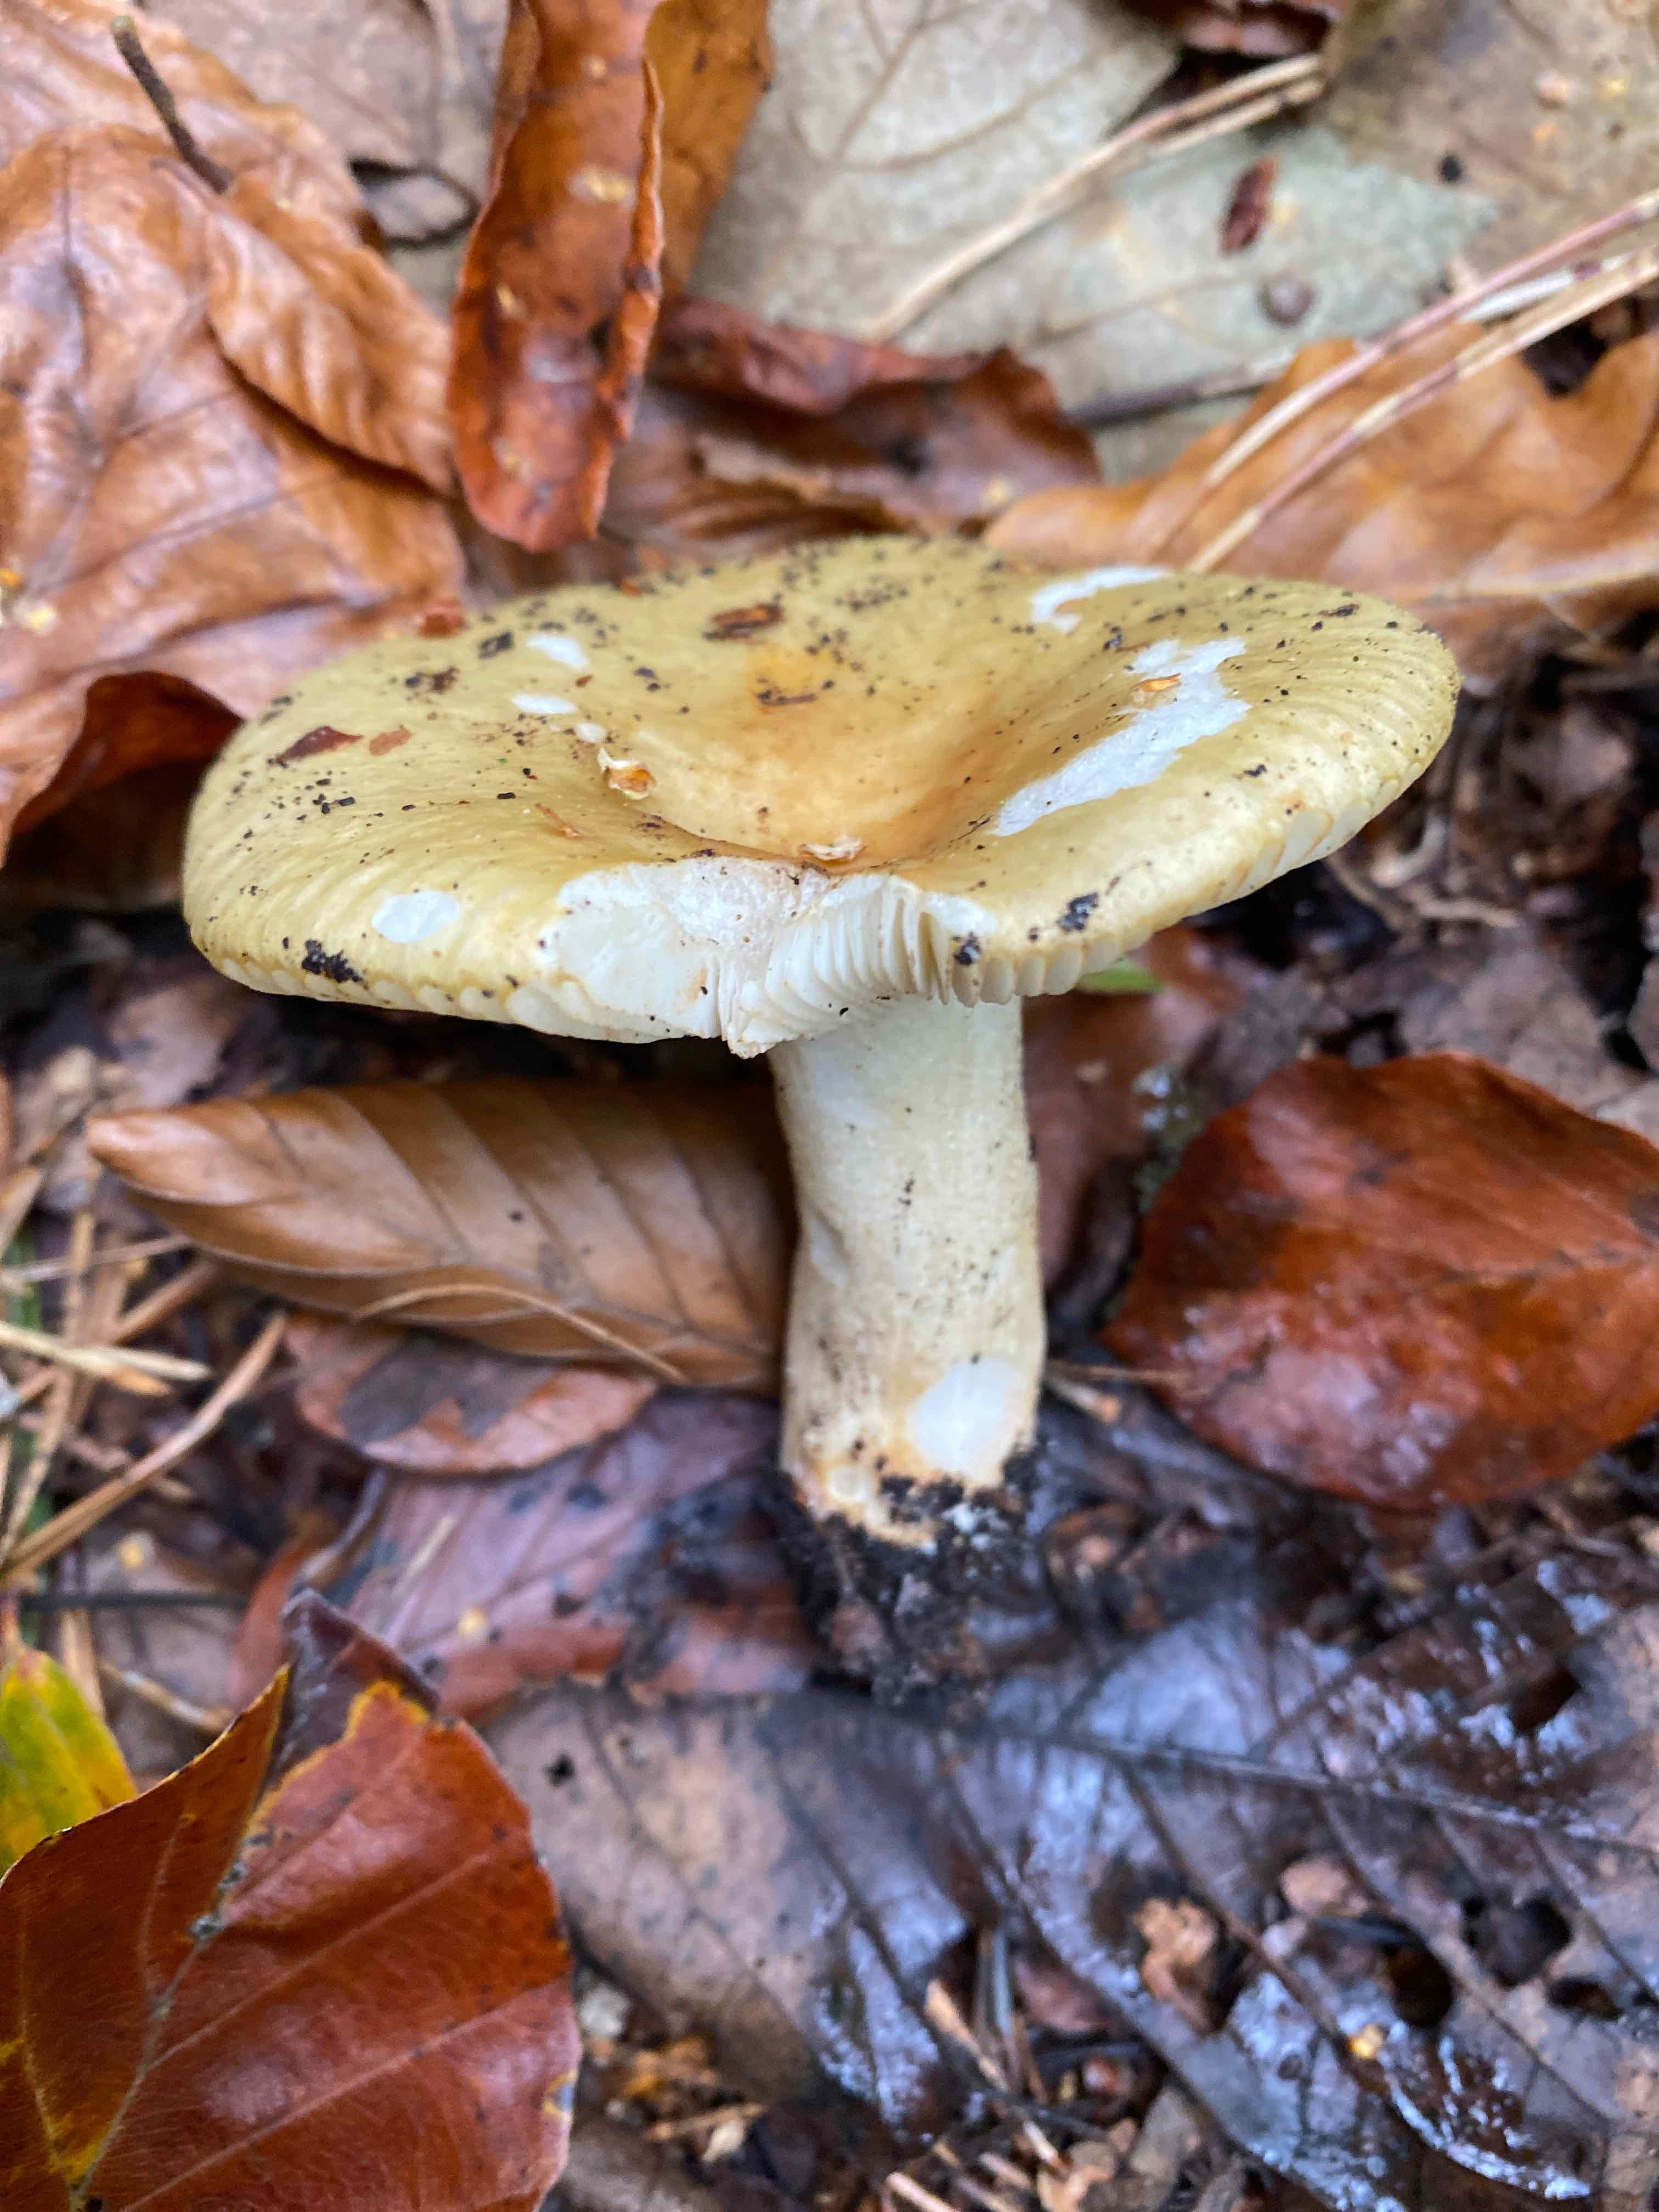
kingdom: Fungi
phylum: Basidiomycota
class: Agaricomycetes
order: Russulales
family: Russulaceae
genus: Russula
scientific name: Russula ochroleuca
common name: okkergul skørhat
